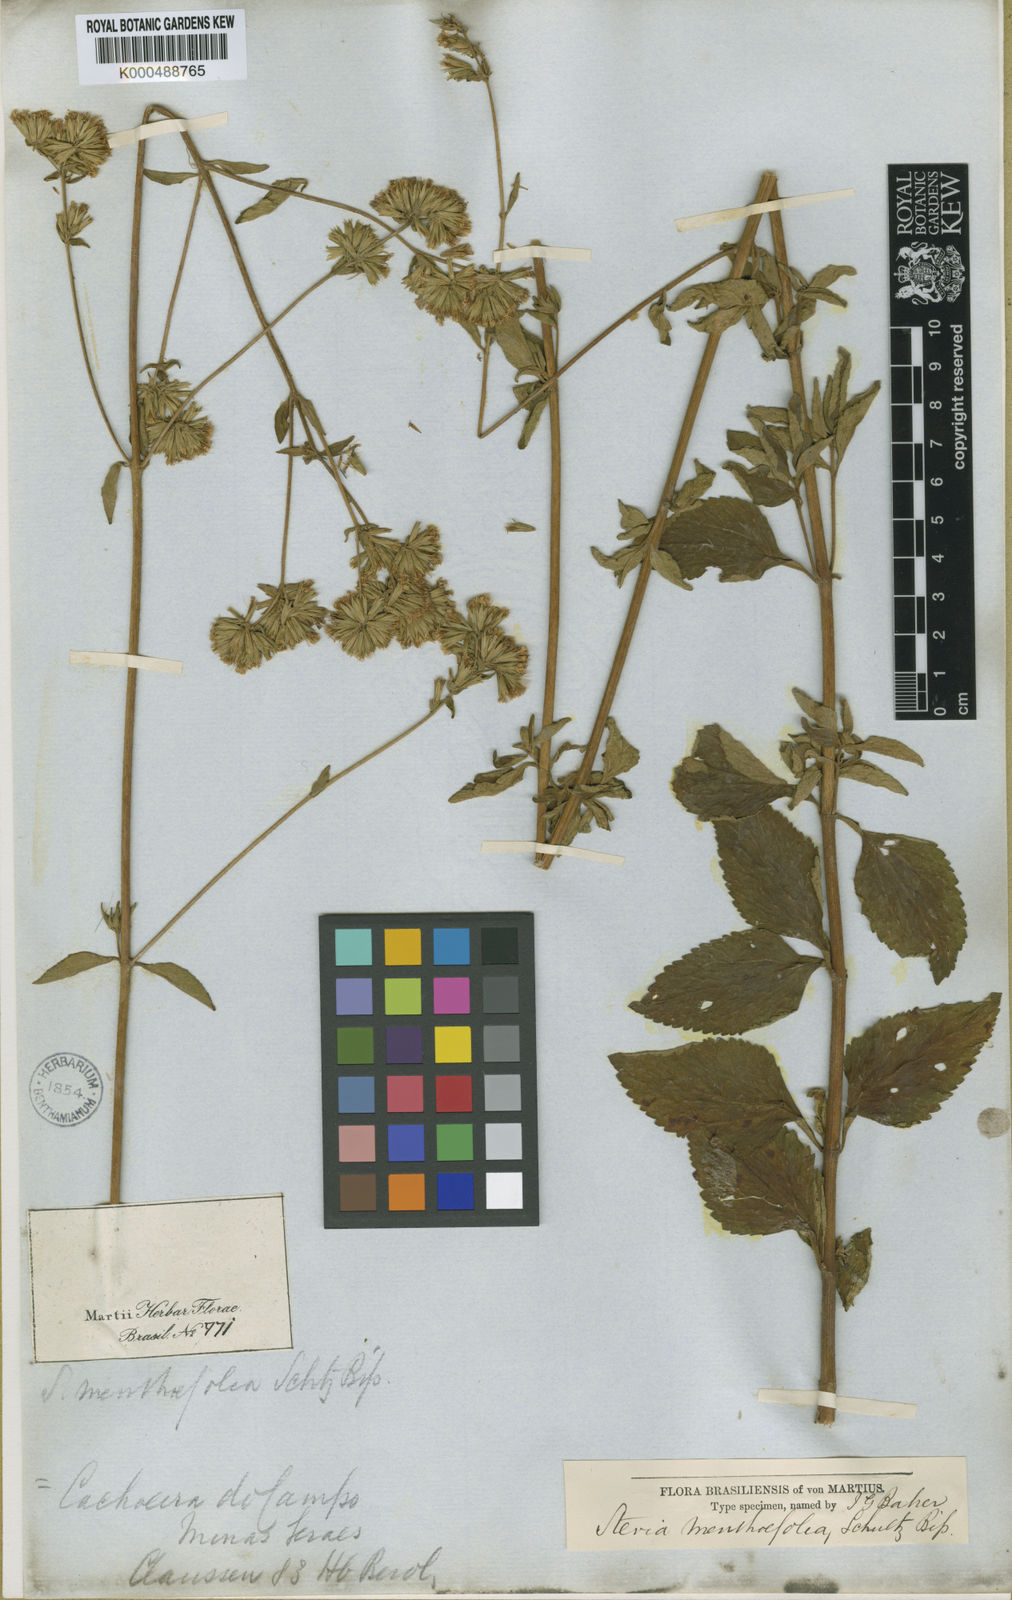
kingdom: Plantae
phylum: Tracheophyta
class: Magnoliopsida
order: Asterales
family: Asteraceae
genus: Stevia
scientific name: Stevia menthifolia
